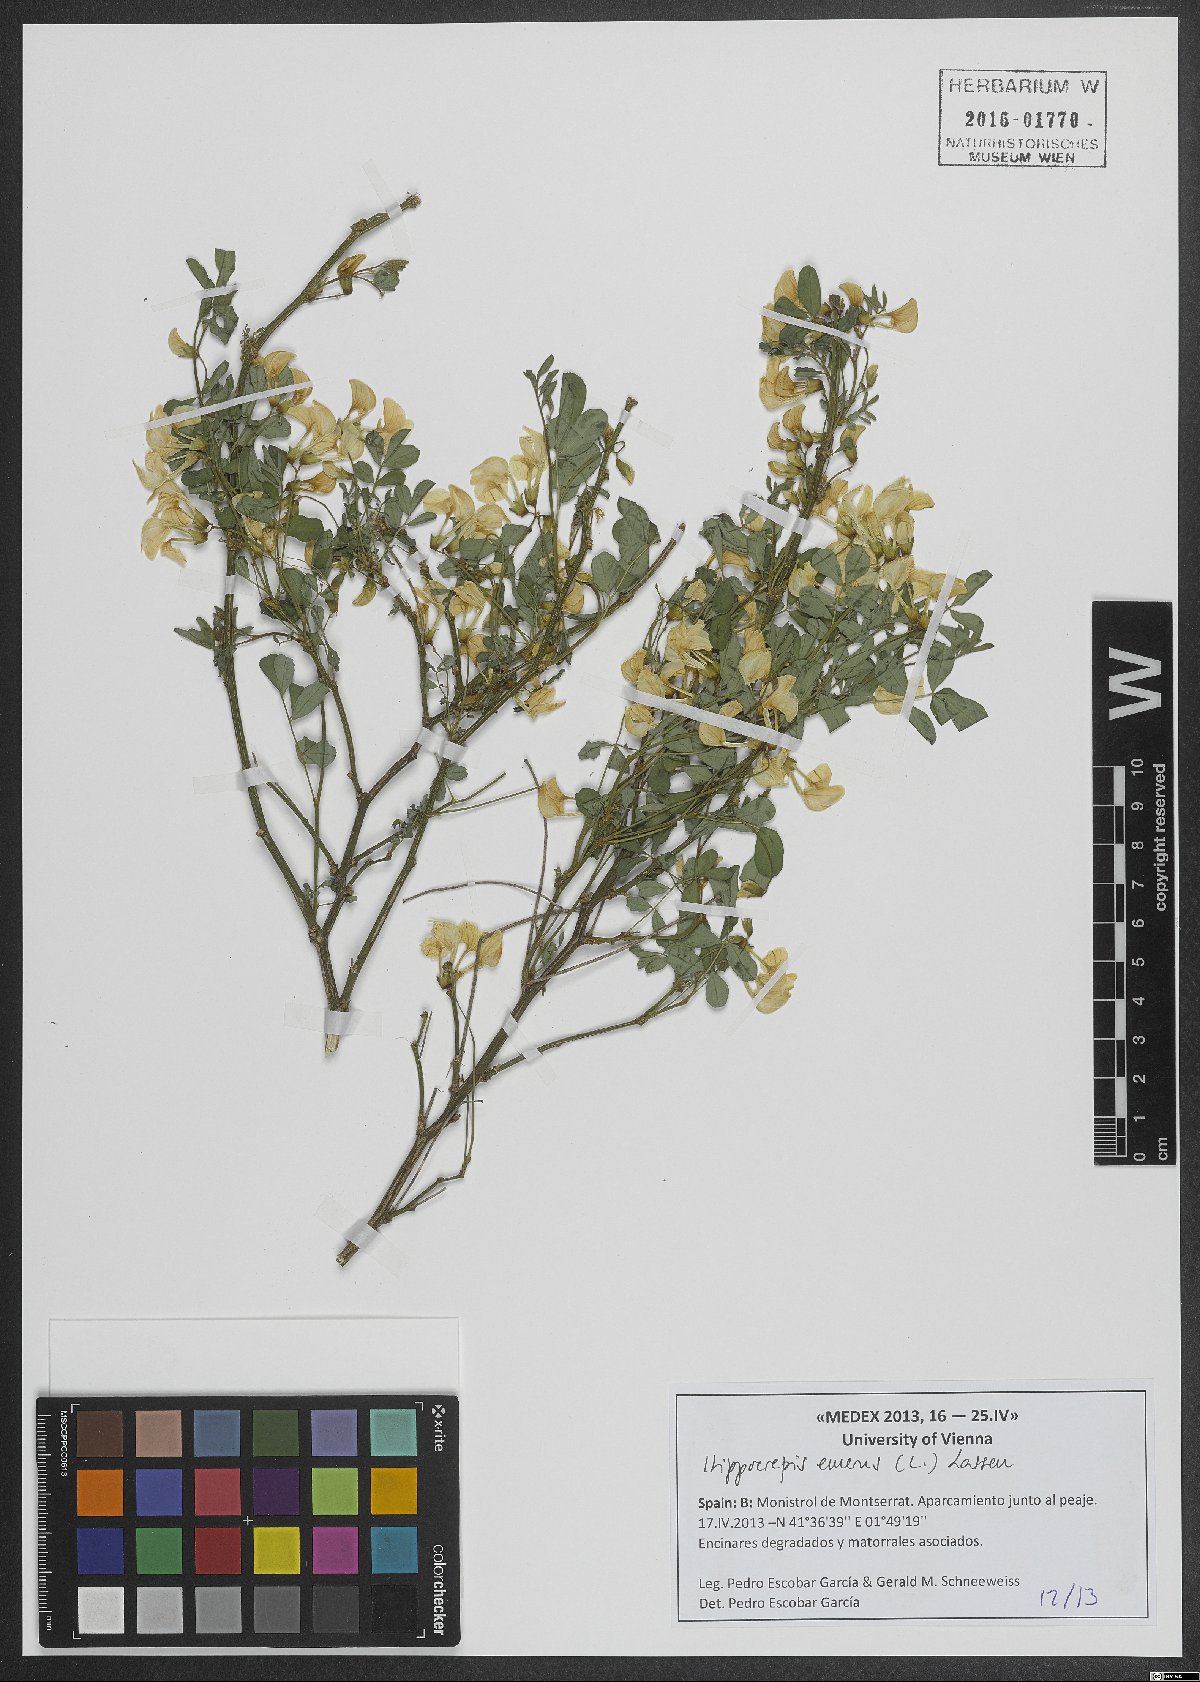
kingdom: Plantae
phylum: Tracheophyta
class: Magnoliopsida
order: Fabales
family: Fabaceae
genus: Hippocrepis
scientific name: Hippocrepis emerus
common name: Scorpion senna
